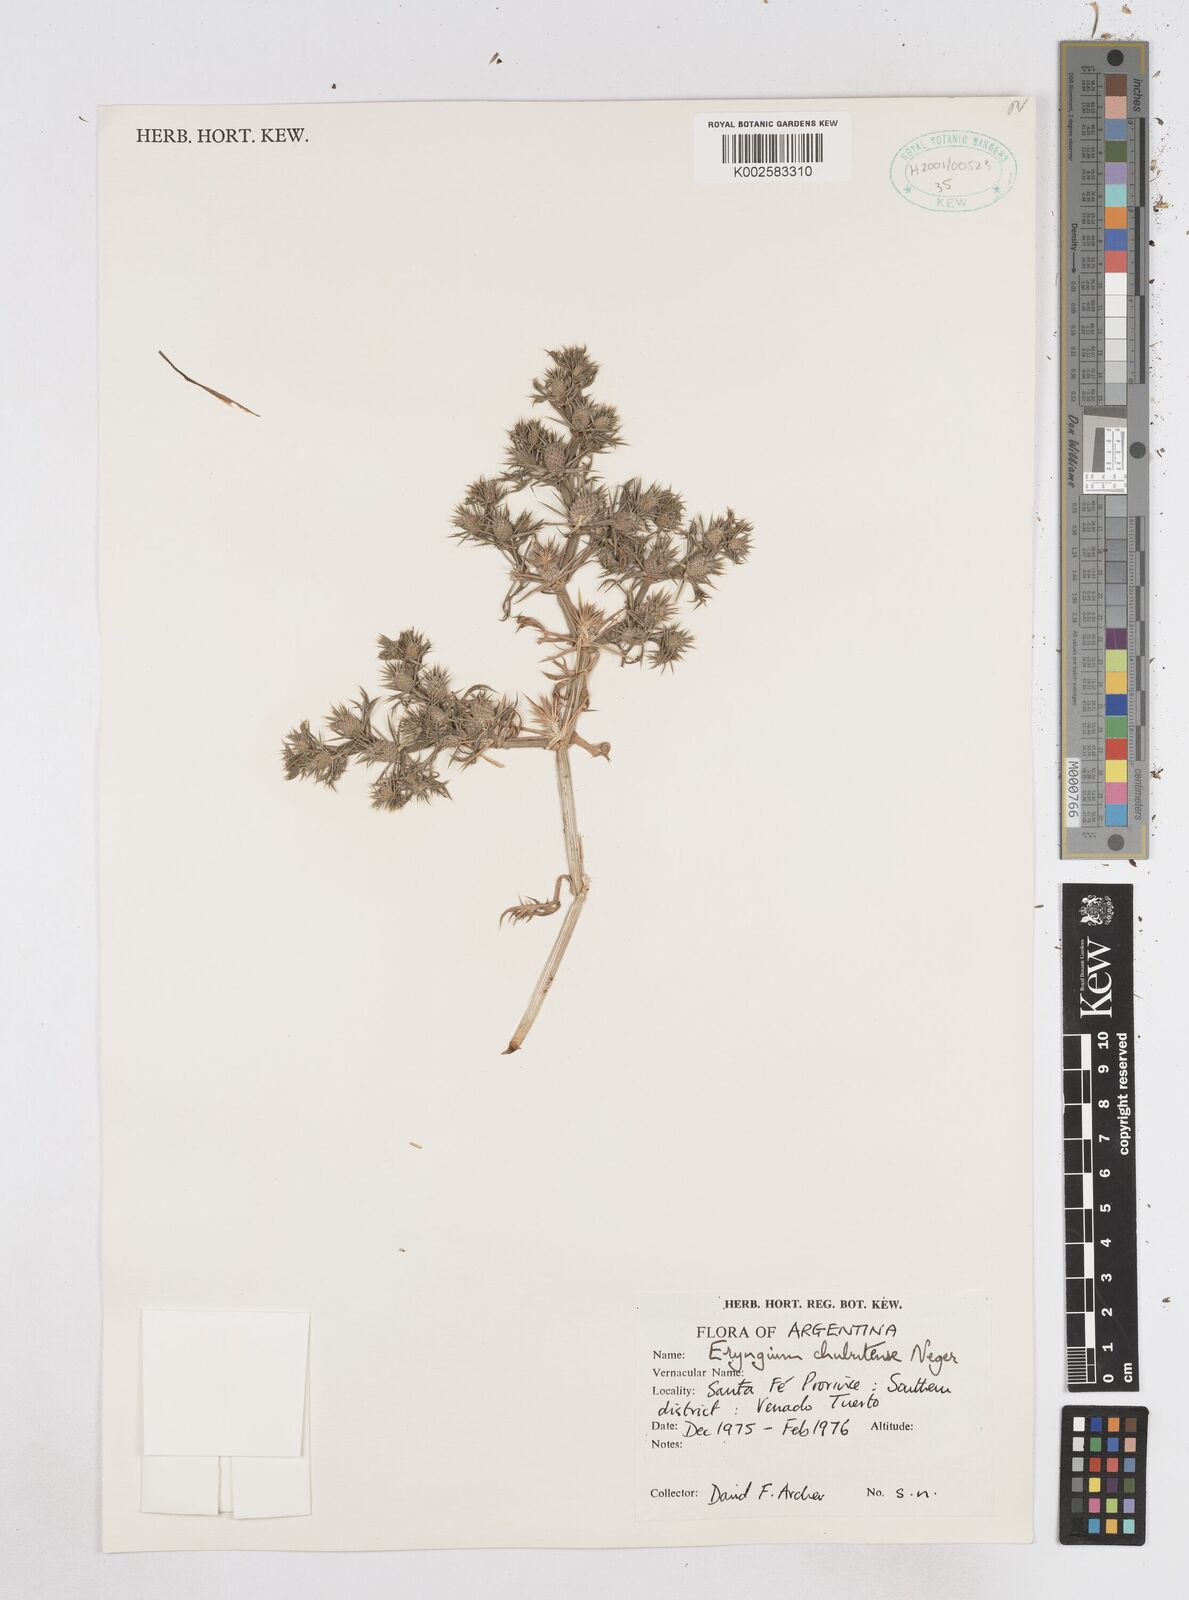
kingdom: Plantae
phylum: Tracheophyta
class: Magnoliopsida
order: Apiales
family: Apiaceae
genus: Eryngium
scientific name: Eryngium chubutense
